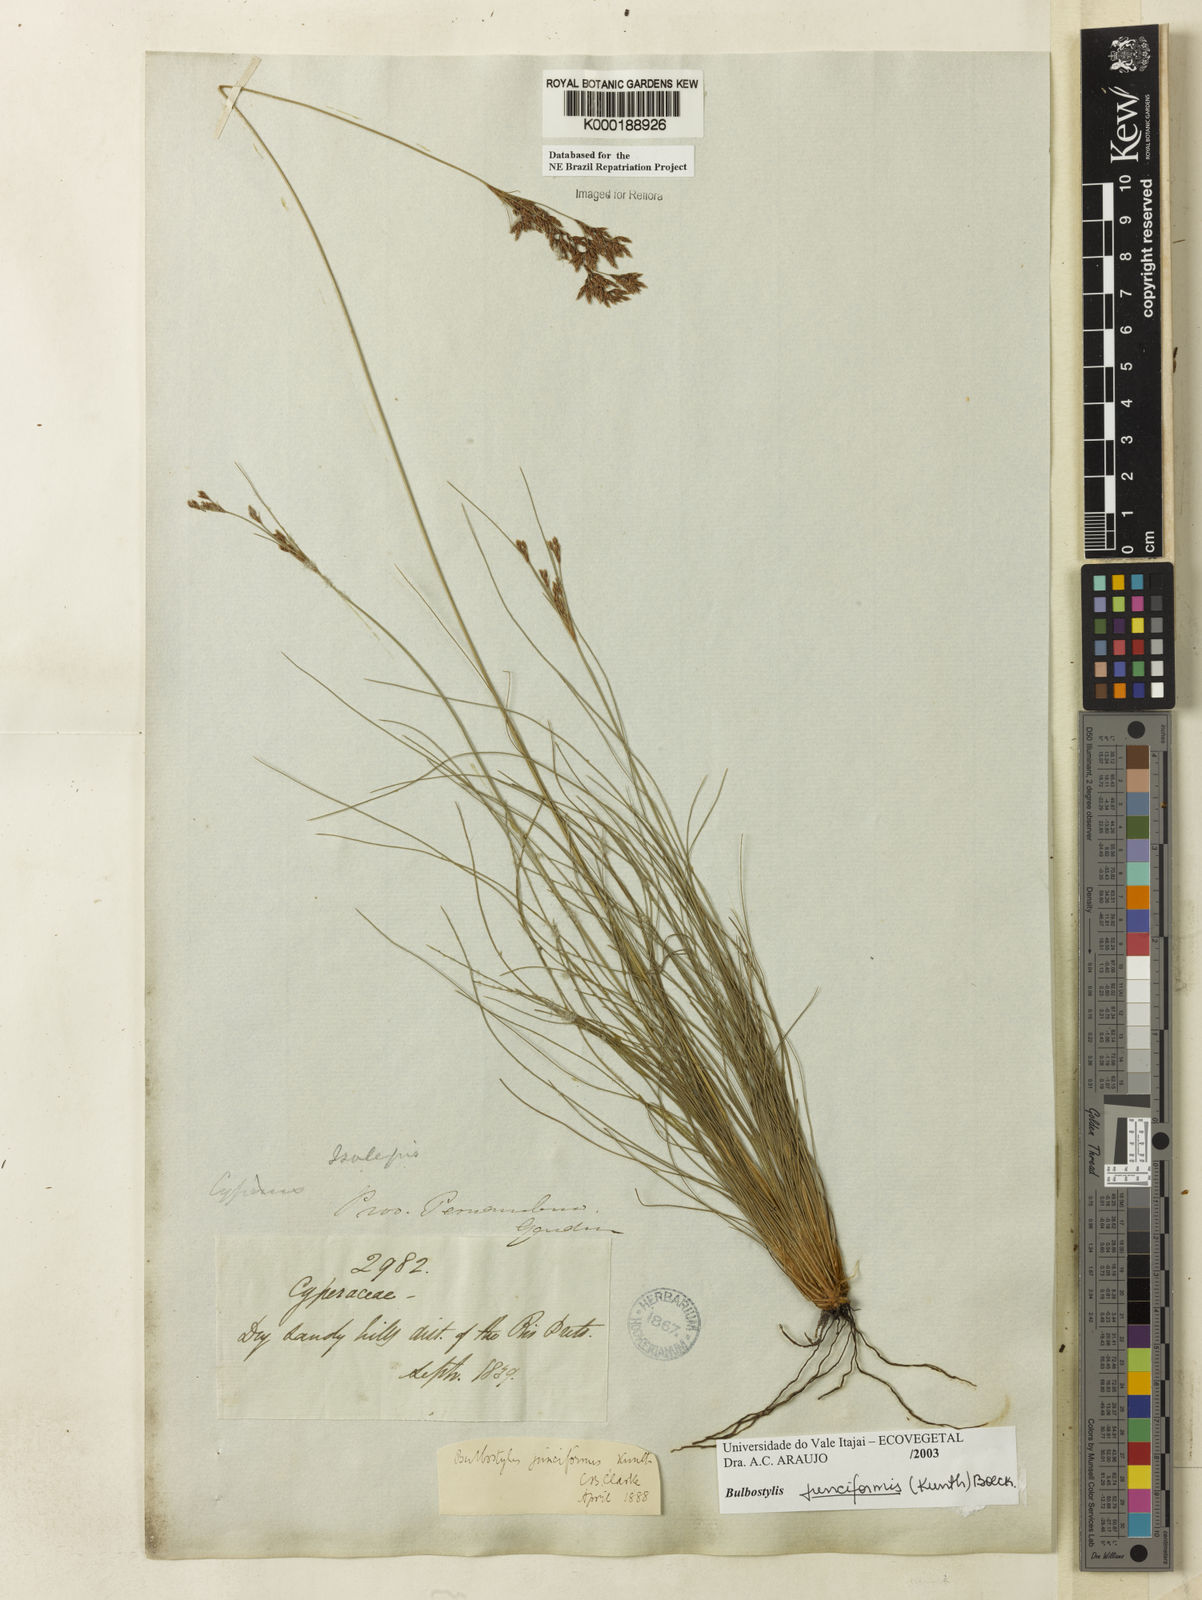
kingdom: Plantae
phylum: Tracheophyta
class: Liliopsida
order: Poales
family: Cyperaceae
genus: Bulbostylis
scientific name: Bulbostylis
